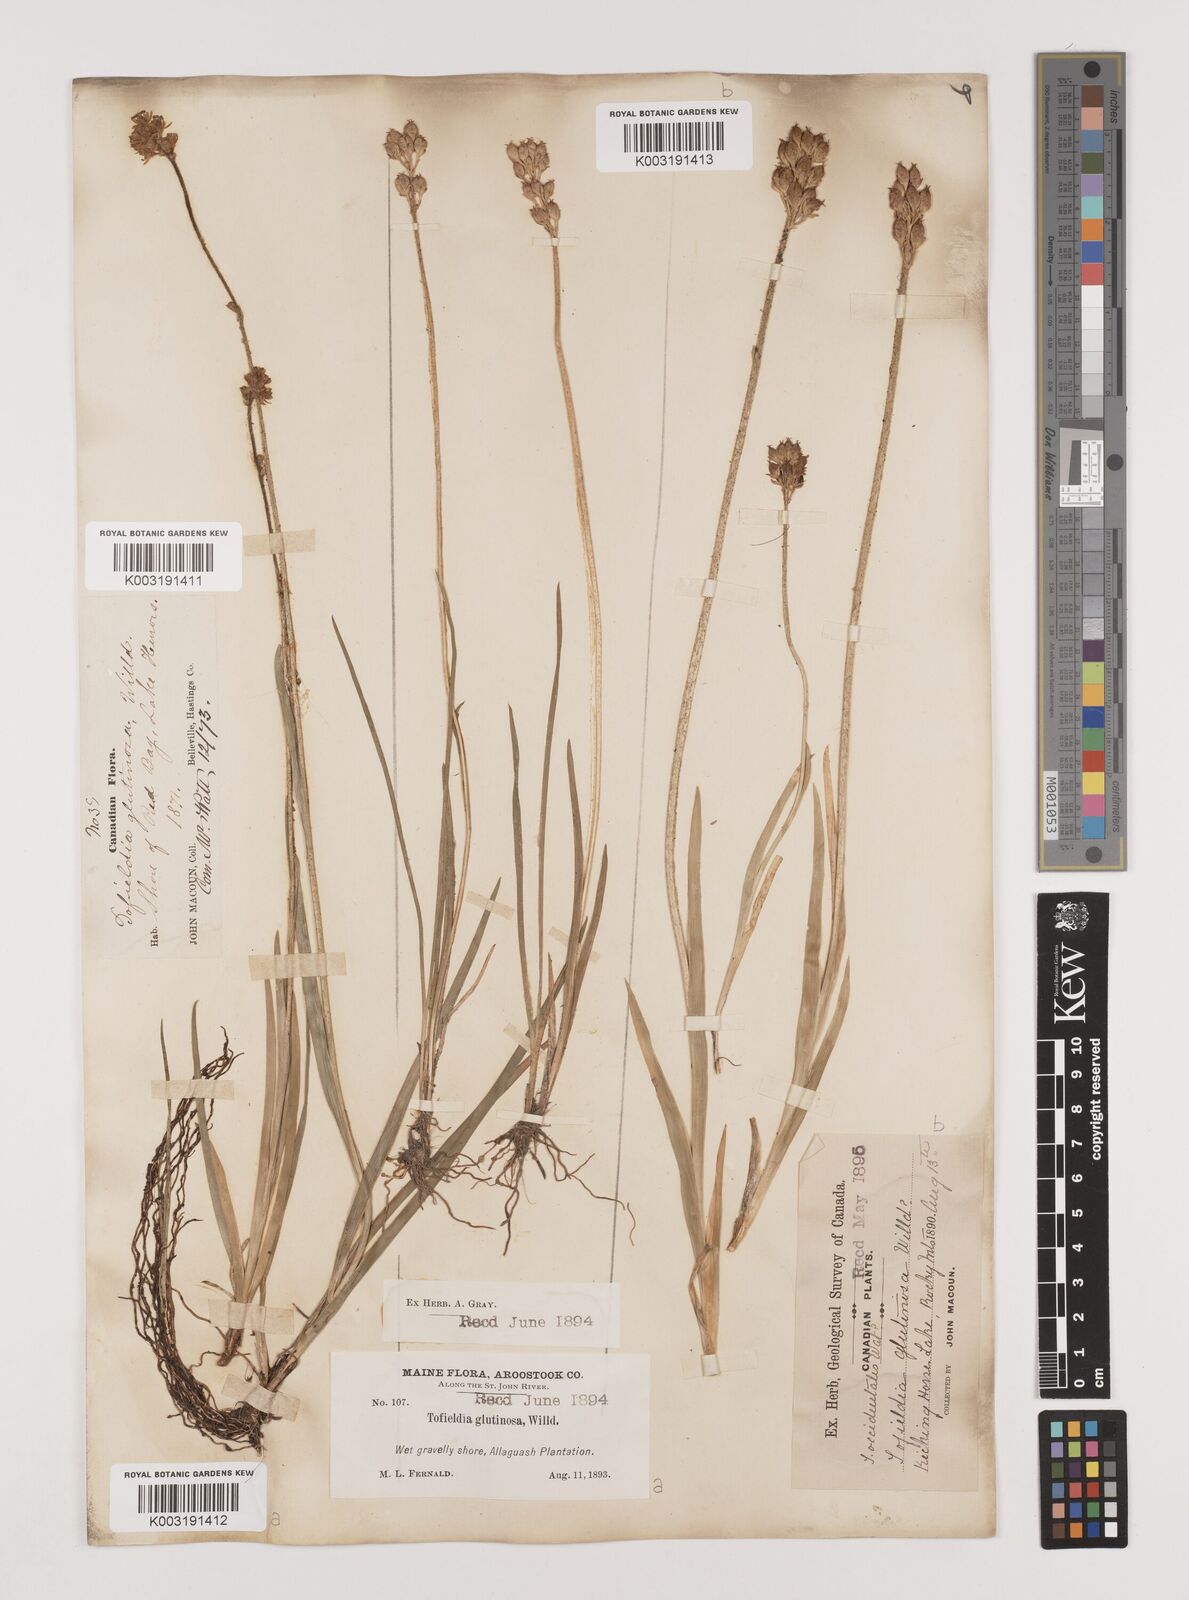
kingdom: Plantae
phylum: Tracheophyta
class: Liliopsida
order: Alismatales
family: Tofieldiaceae
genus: Triantha
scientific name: Triantha glutinosa
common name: Glutinous tofieldia
